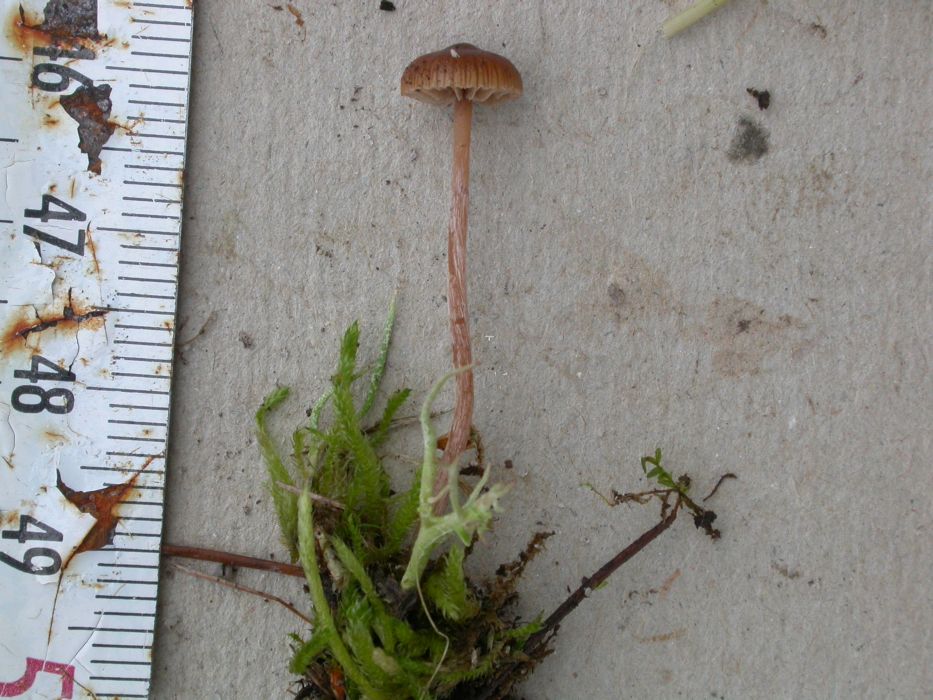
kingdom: Fungi
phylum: Basidiomycota
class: Agaricomycetes
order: Agaricales
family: Hymenogastraceae
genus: Psilocybe
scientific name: Psilocybe subviscida
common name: puklet stråhat
